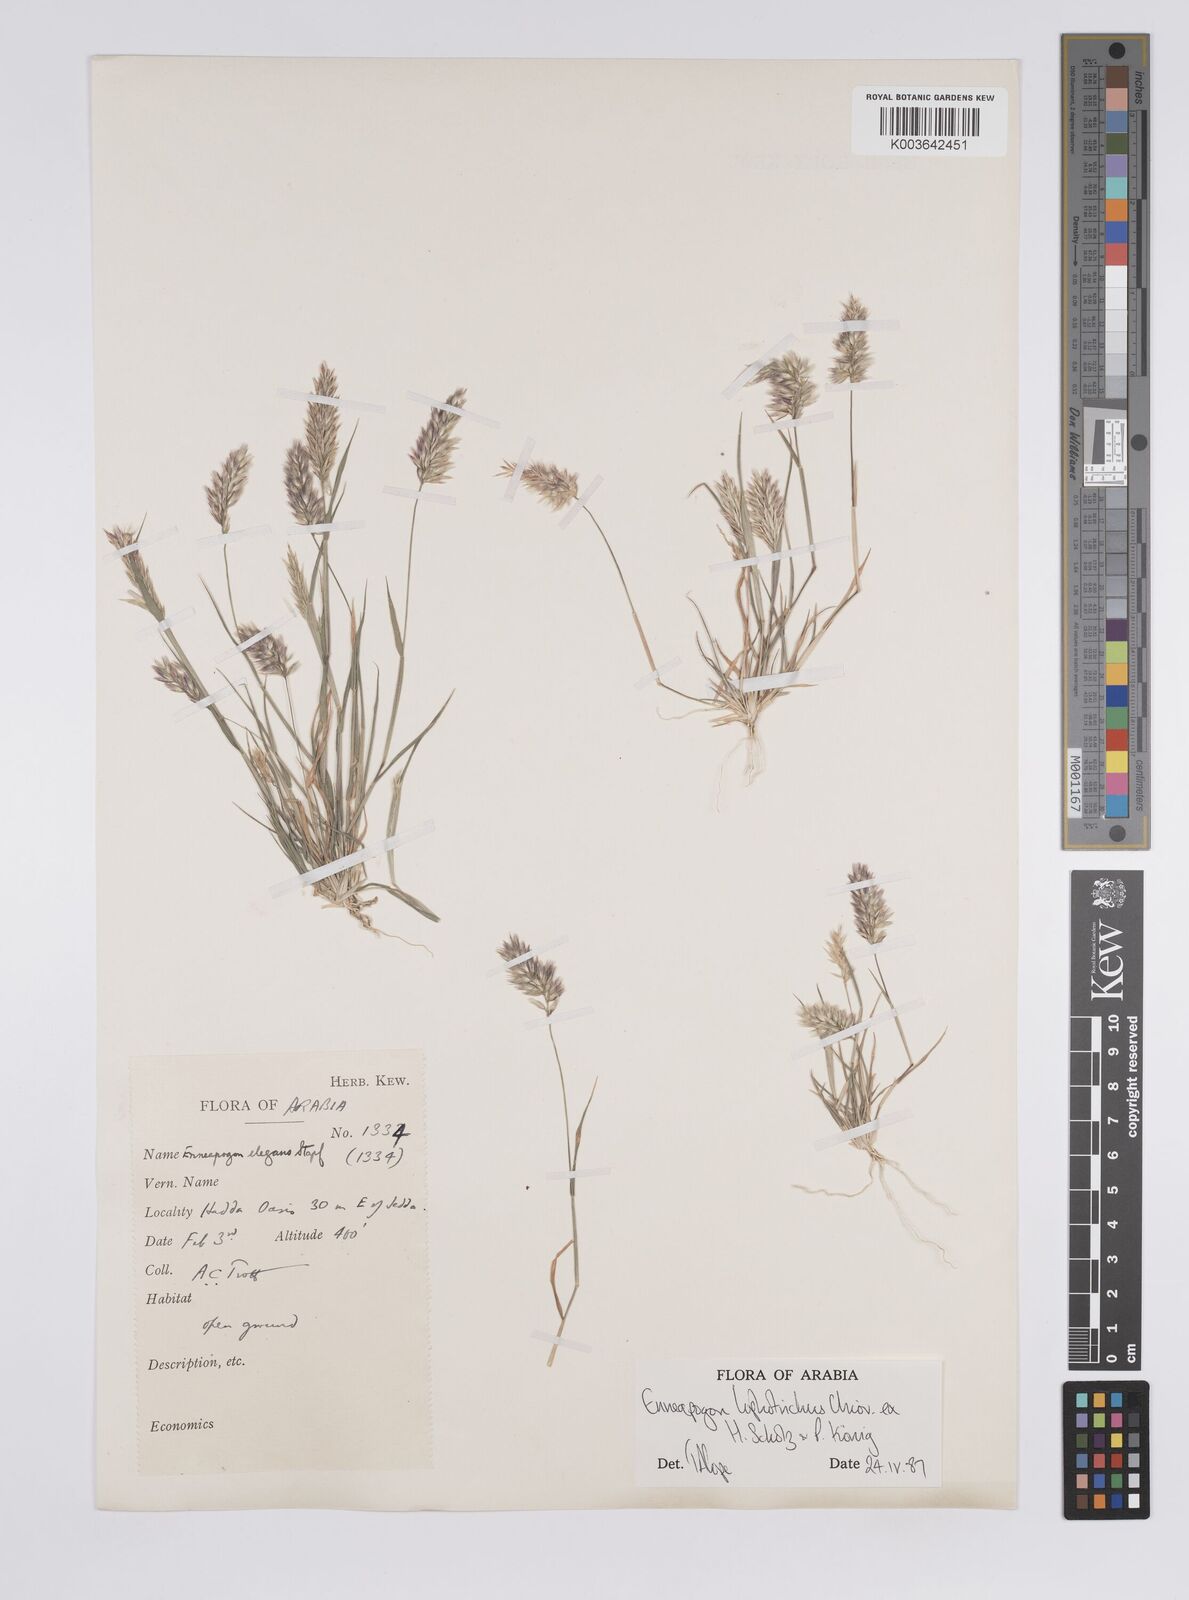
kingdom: Plantae
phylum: Tracheophyta
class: Liliopsida
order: Poales
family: Poaceae
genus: Enneapogon
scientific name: Enneapogon lophotrichus
